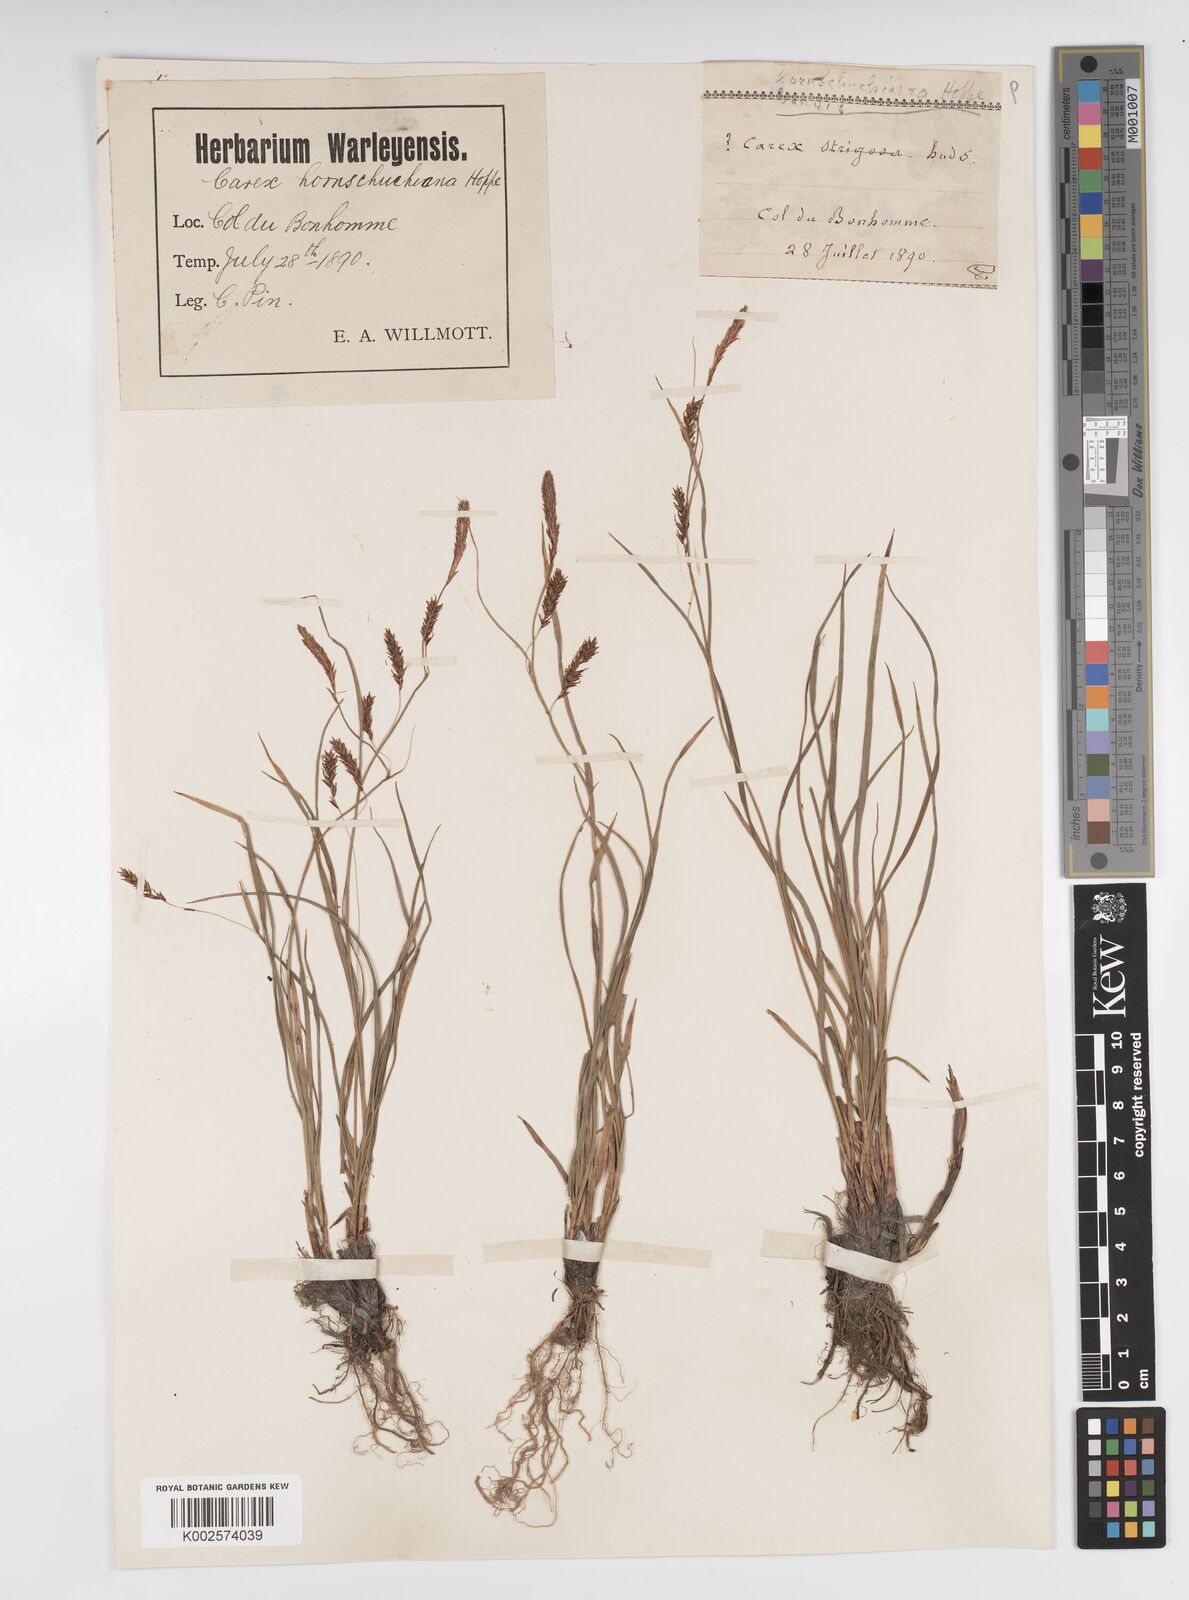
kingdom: Plantae
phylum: Tracheophyta
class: Liliopsida
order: Poales
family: Cyperaceae
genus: Carex
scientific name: Carex brachystachys
